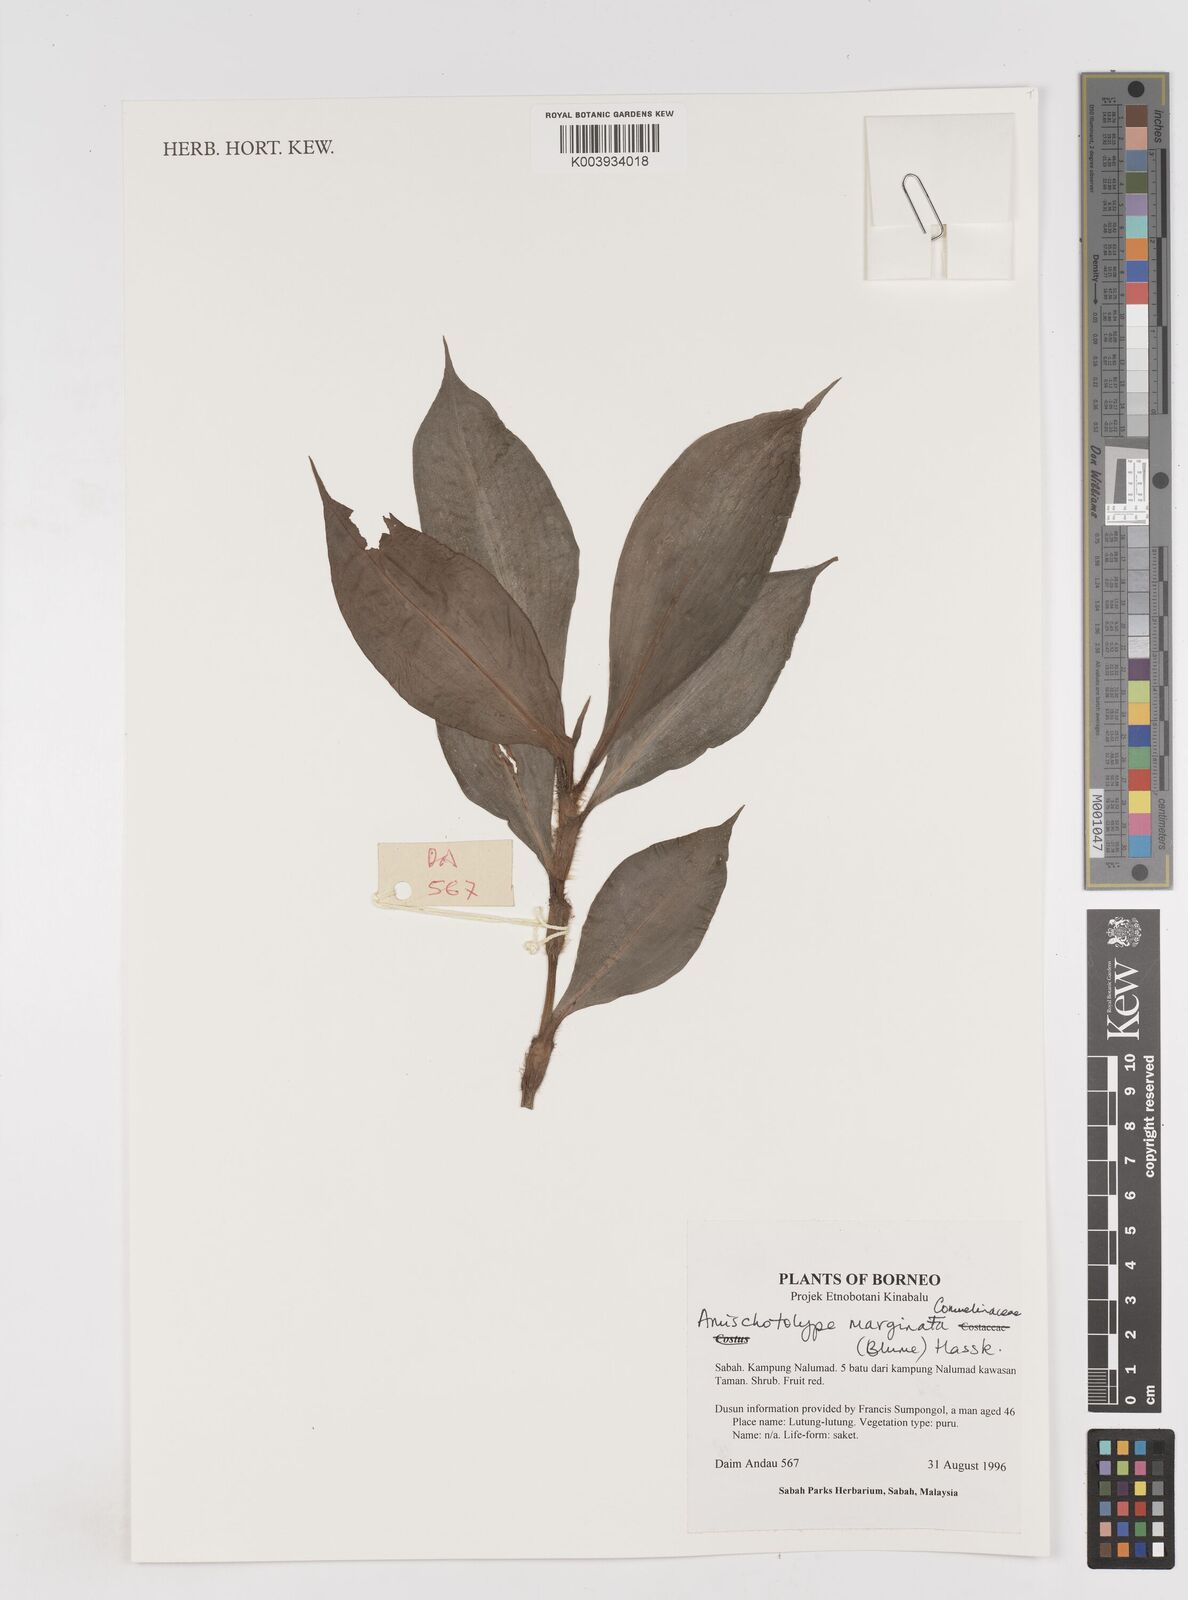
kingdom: Plantae
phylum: Tracheophyta
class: Liliopsida
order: Commelinales
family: Commelinaceae
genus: Amischotolype
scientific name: Amischotolype marginata
